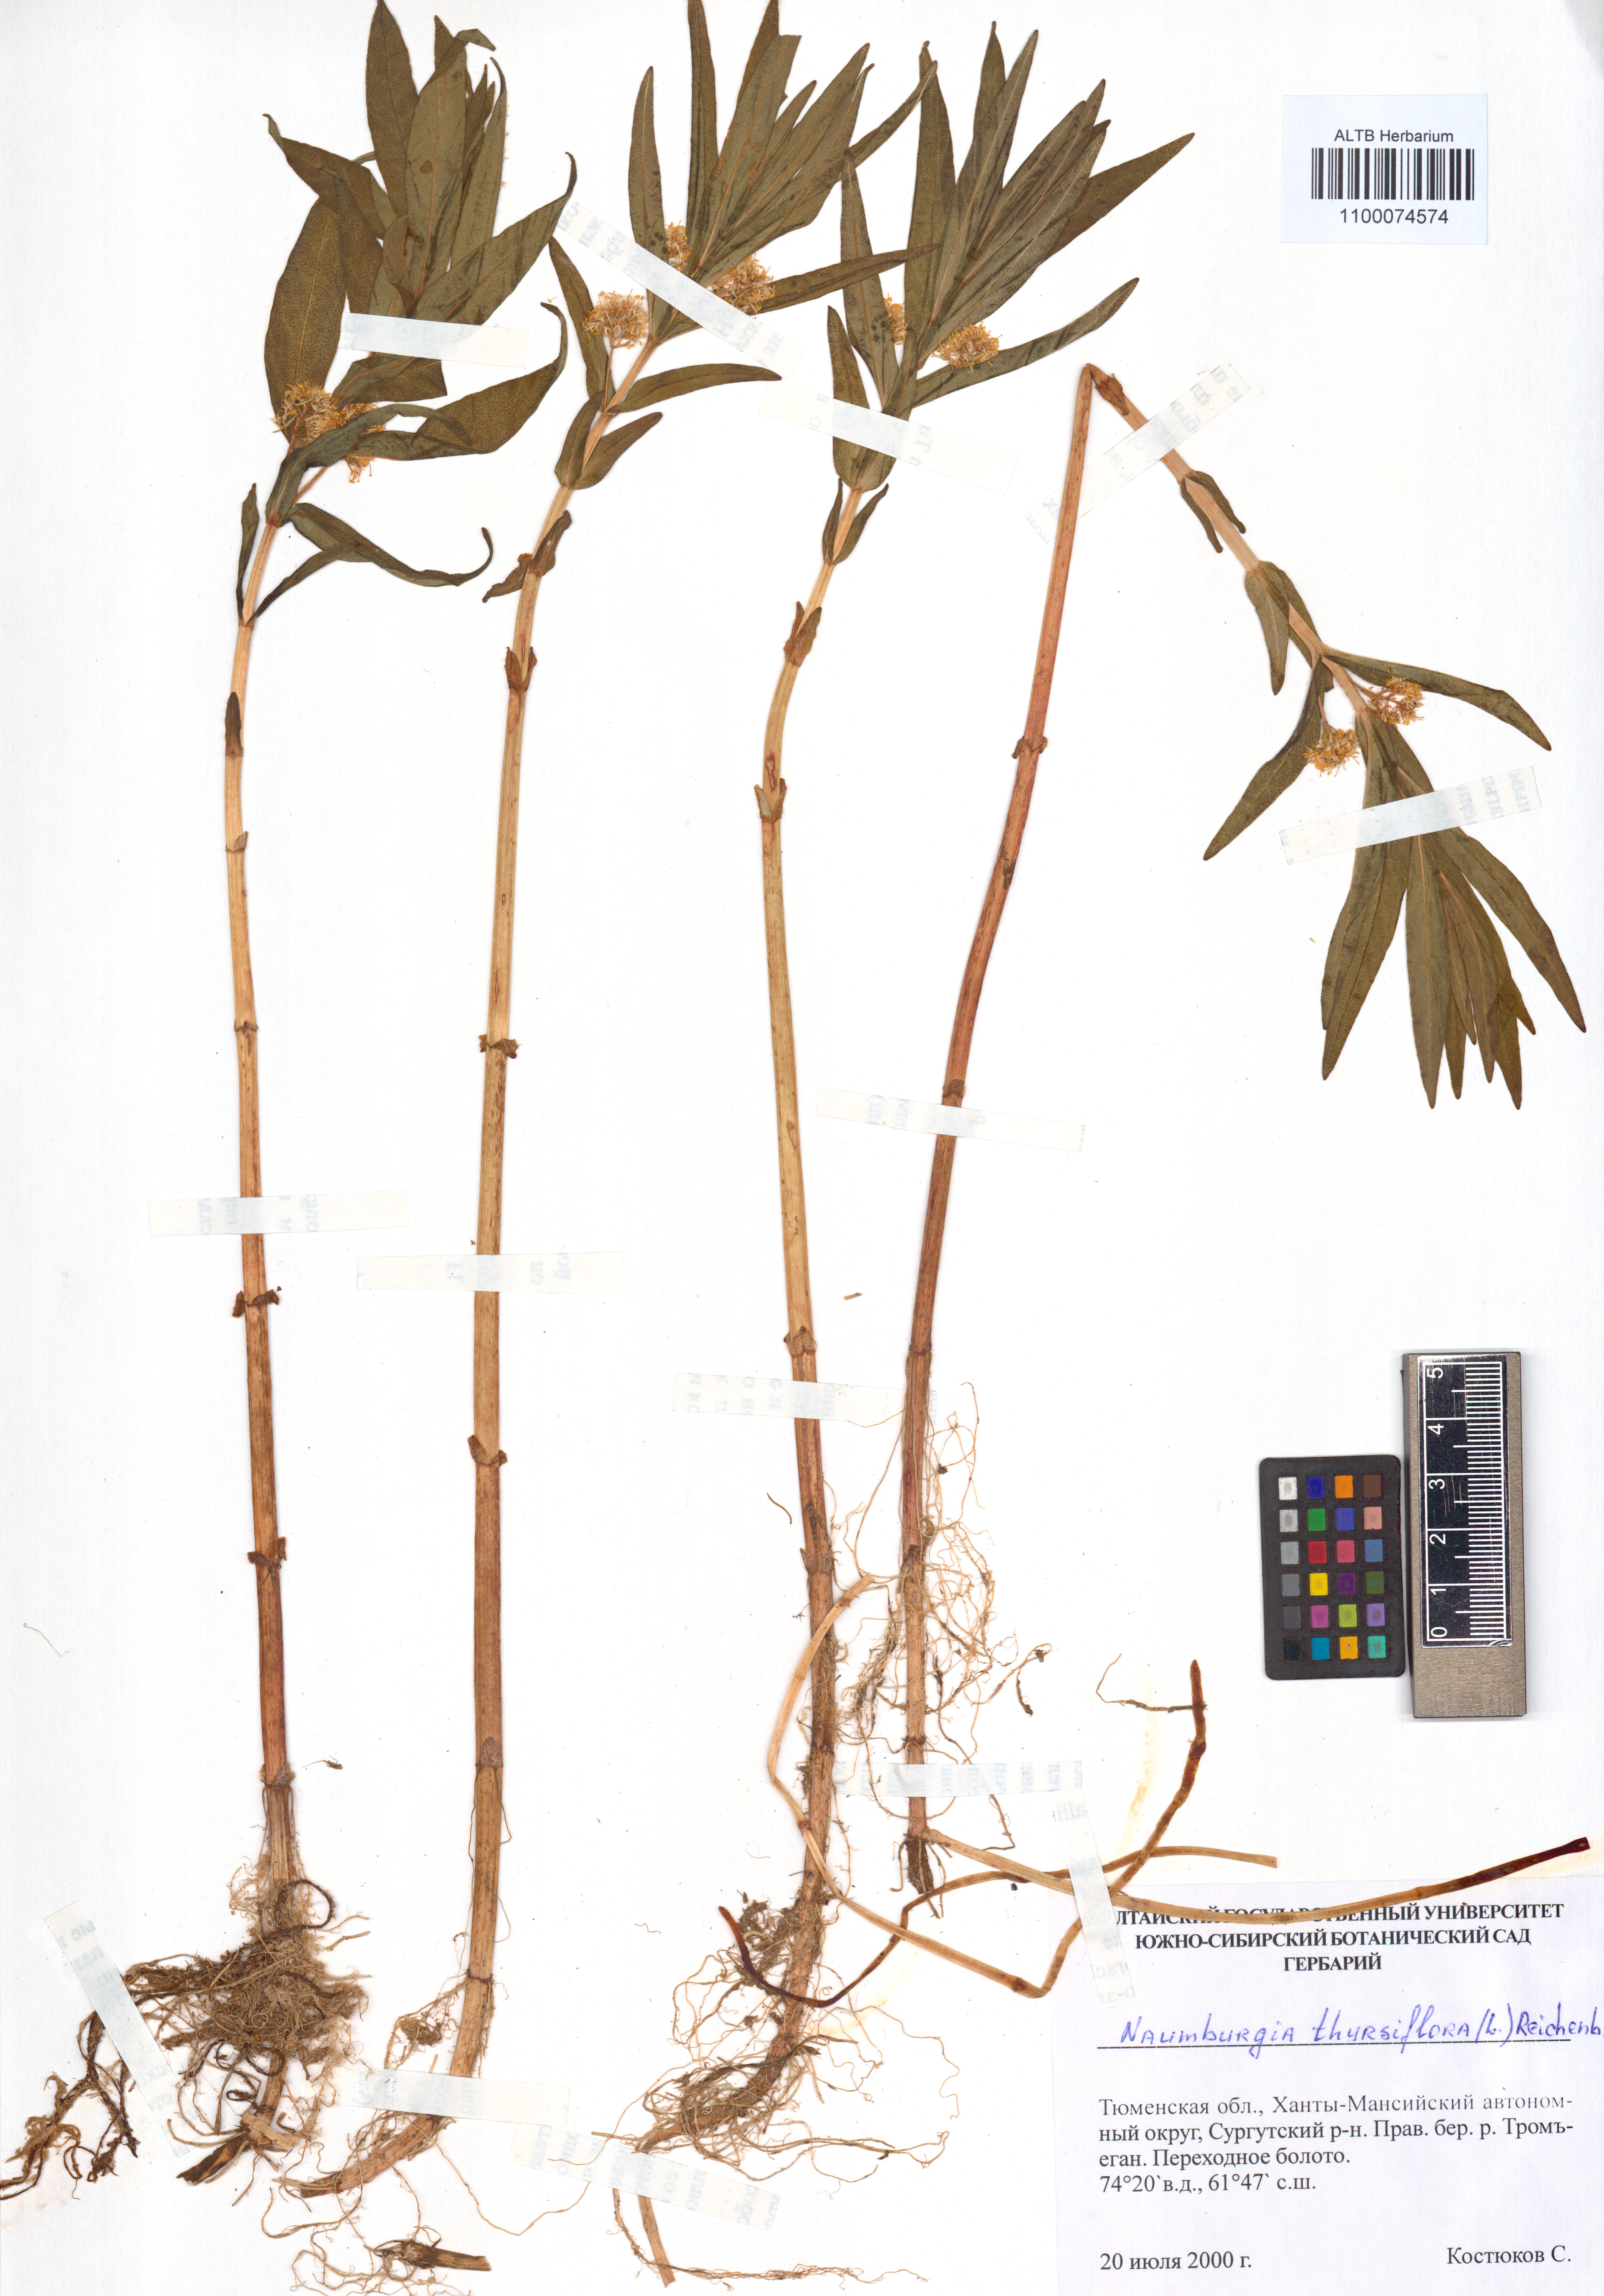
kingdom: Plantae
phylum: Tracheophyta
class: Magnoliopsida
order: Ericales
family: Primulaceae
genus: Lysimachia
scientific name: Lysimachia thyrsiflora
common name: Tufted loosestrife
